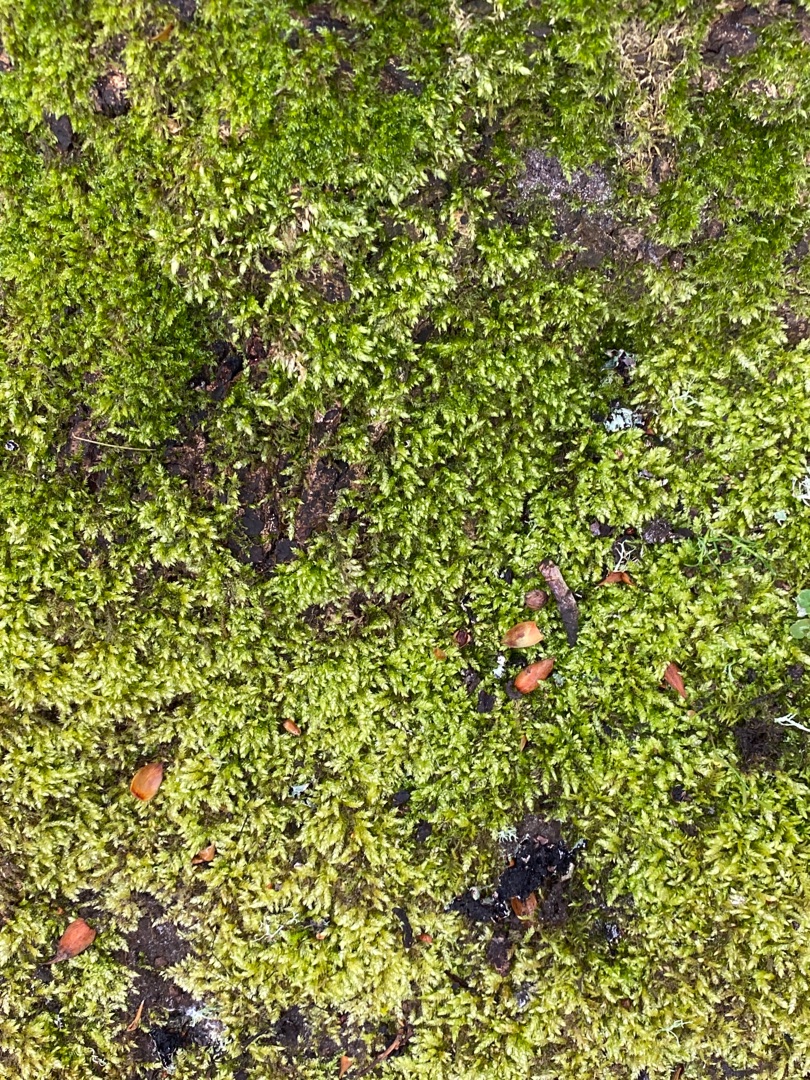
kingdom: Plantae
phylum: Bryophyta
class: Bryopsida
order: Hypnales
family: Brachytheciaceae
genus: Brachythecium
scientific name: Brachythecium rutabulum
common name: Almindelig kortkapsel
